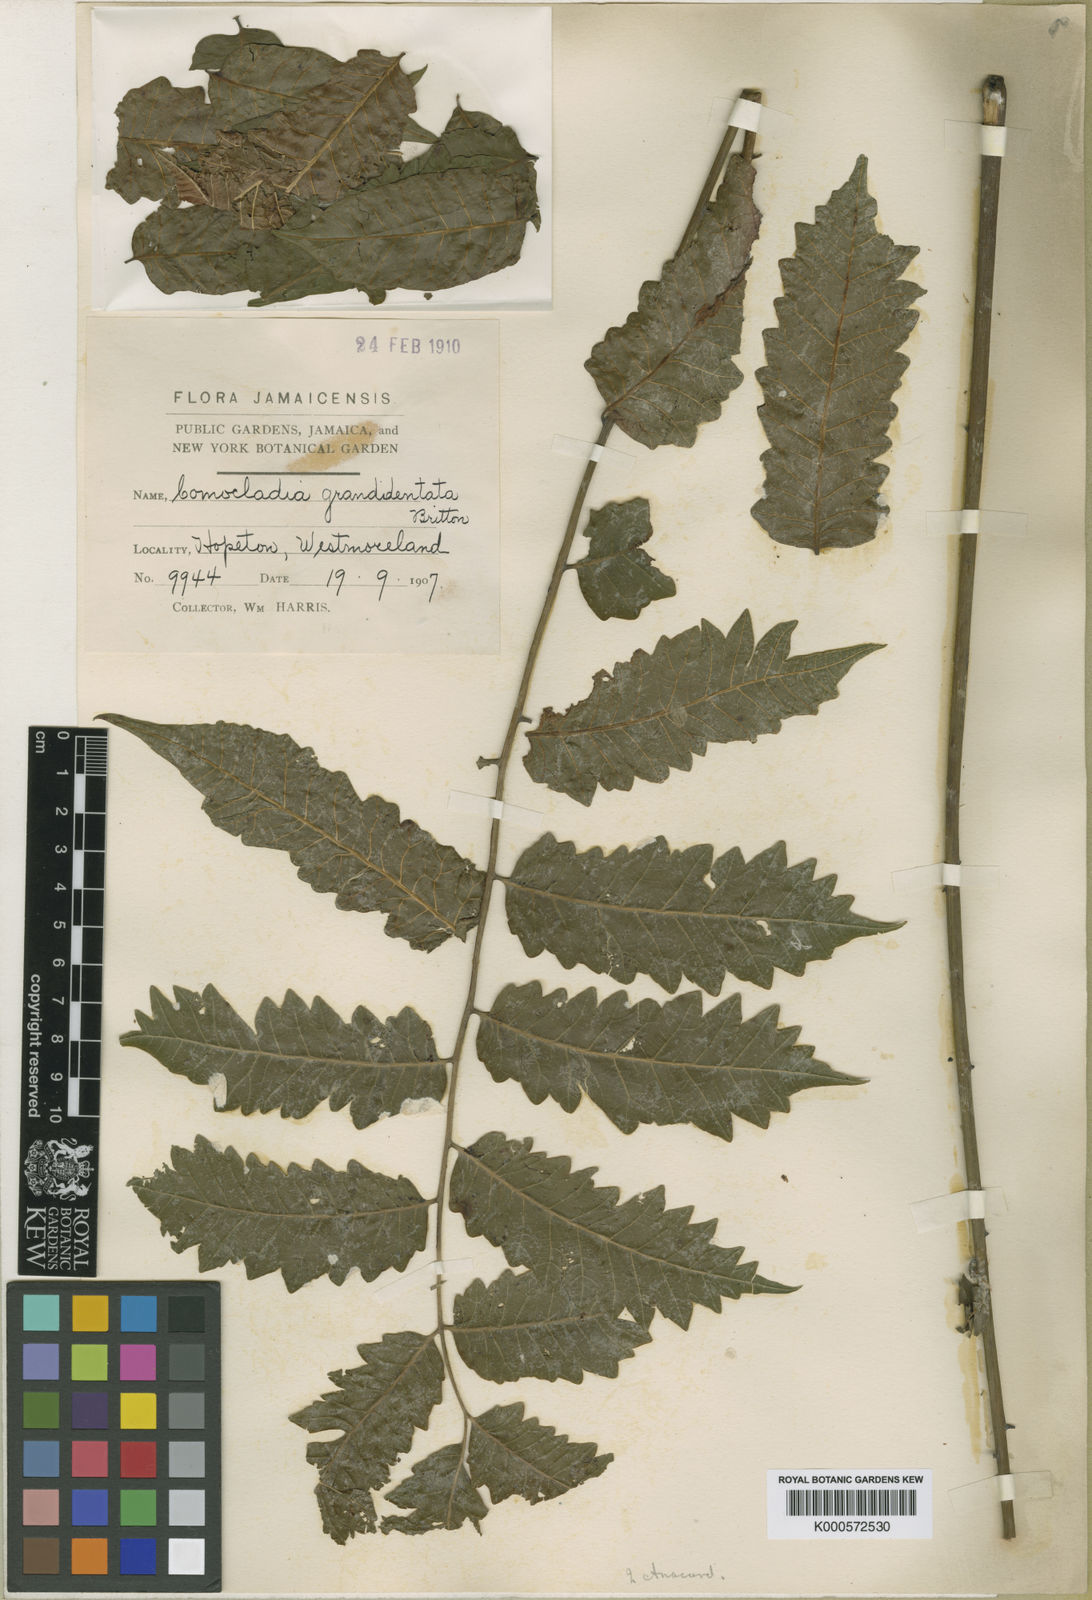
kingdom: Plantae
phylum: Tracheophyta
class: Magnoliopsida
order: Sapindales
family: Anacardiaceae
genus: Comocladia
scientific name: Comocladia grandidentata
